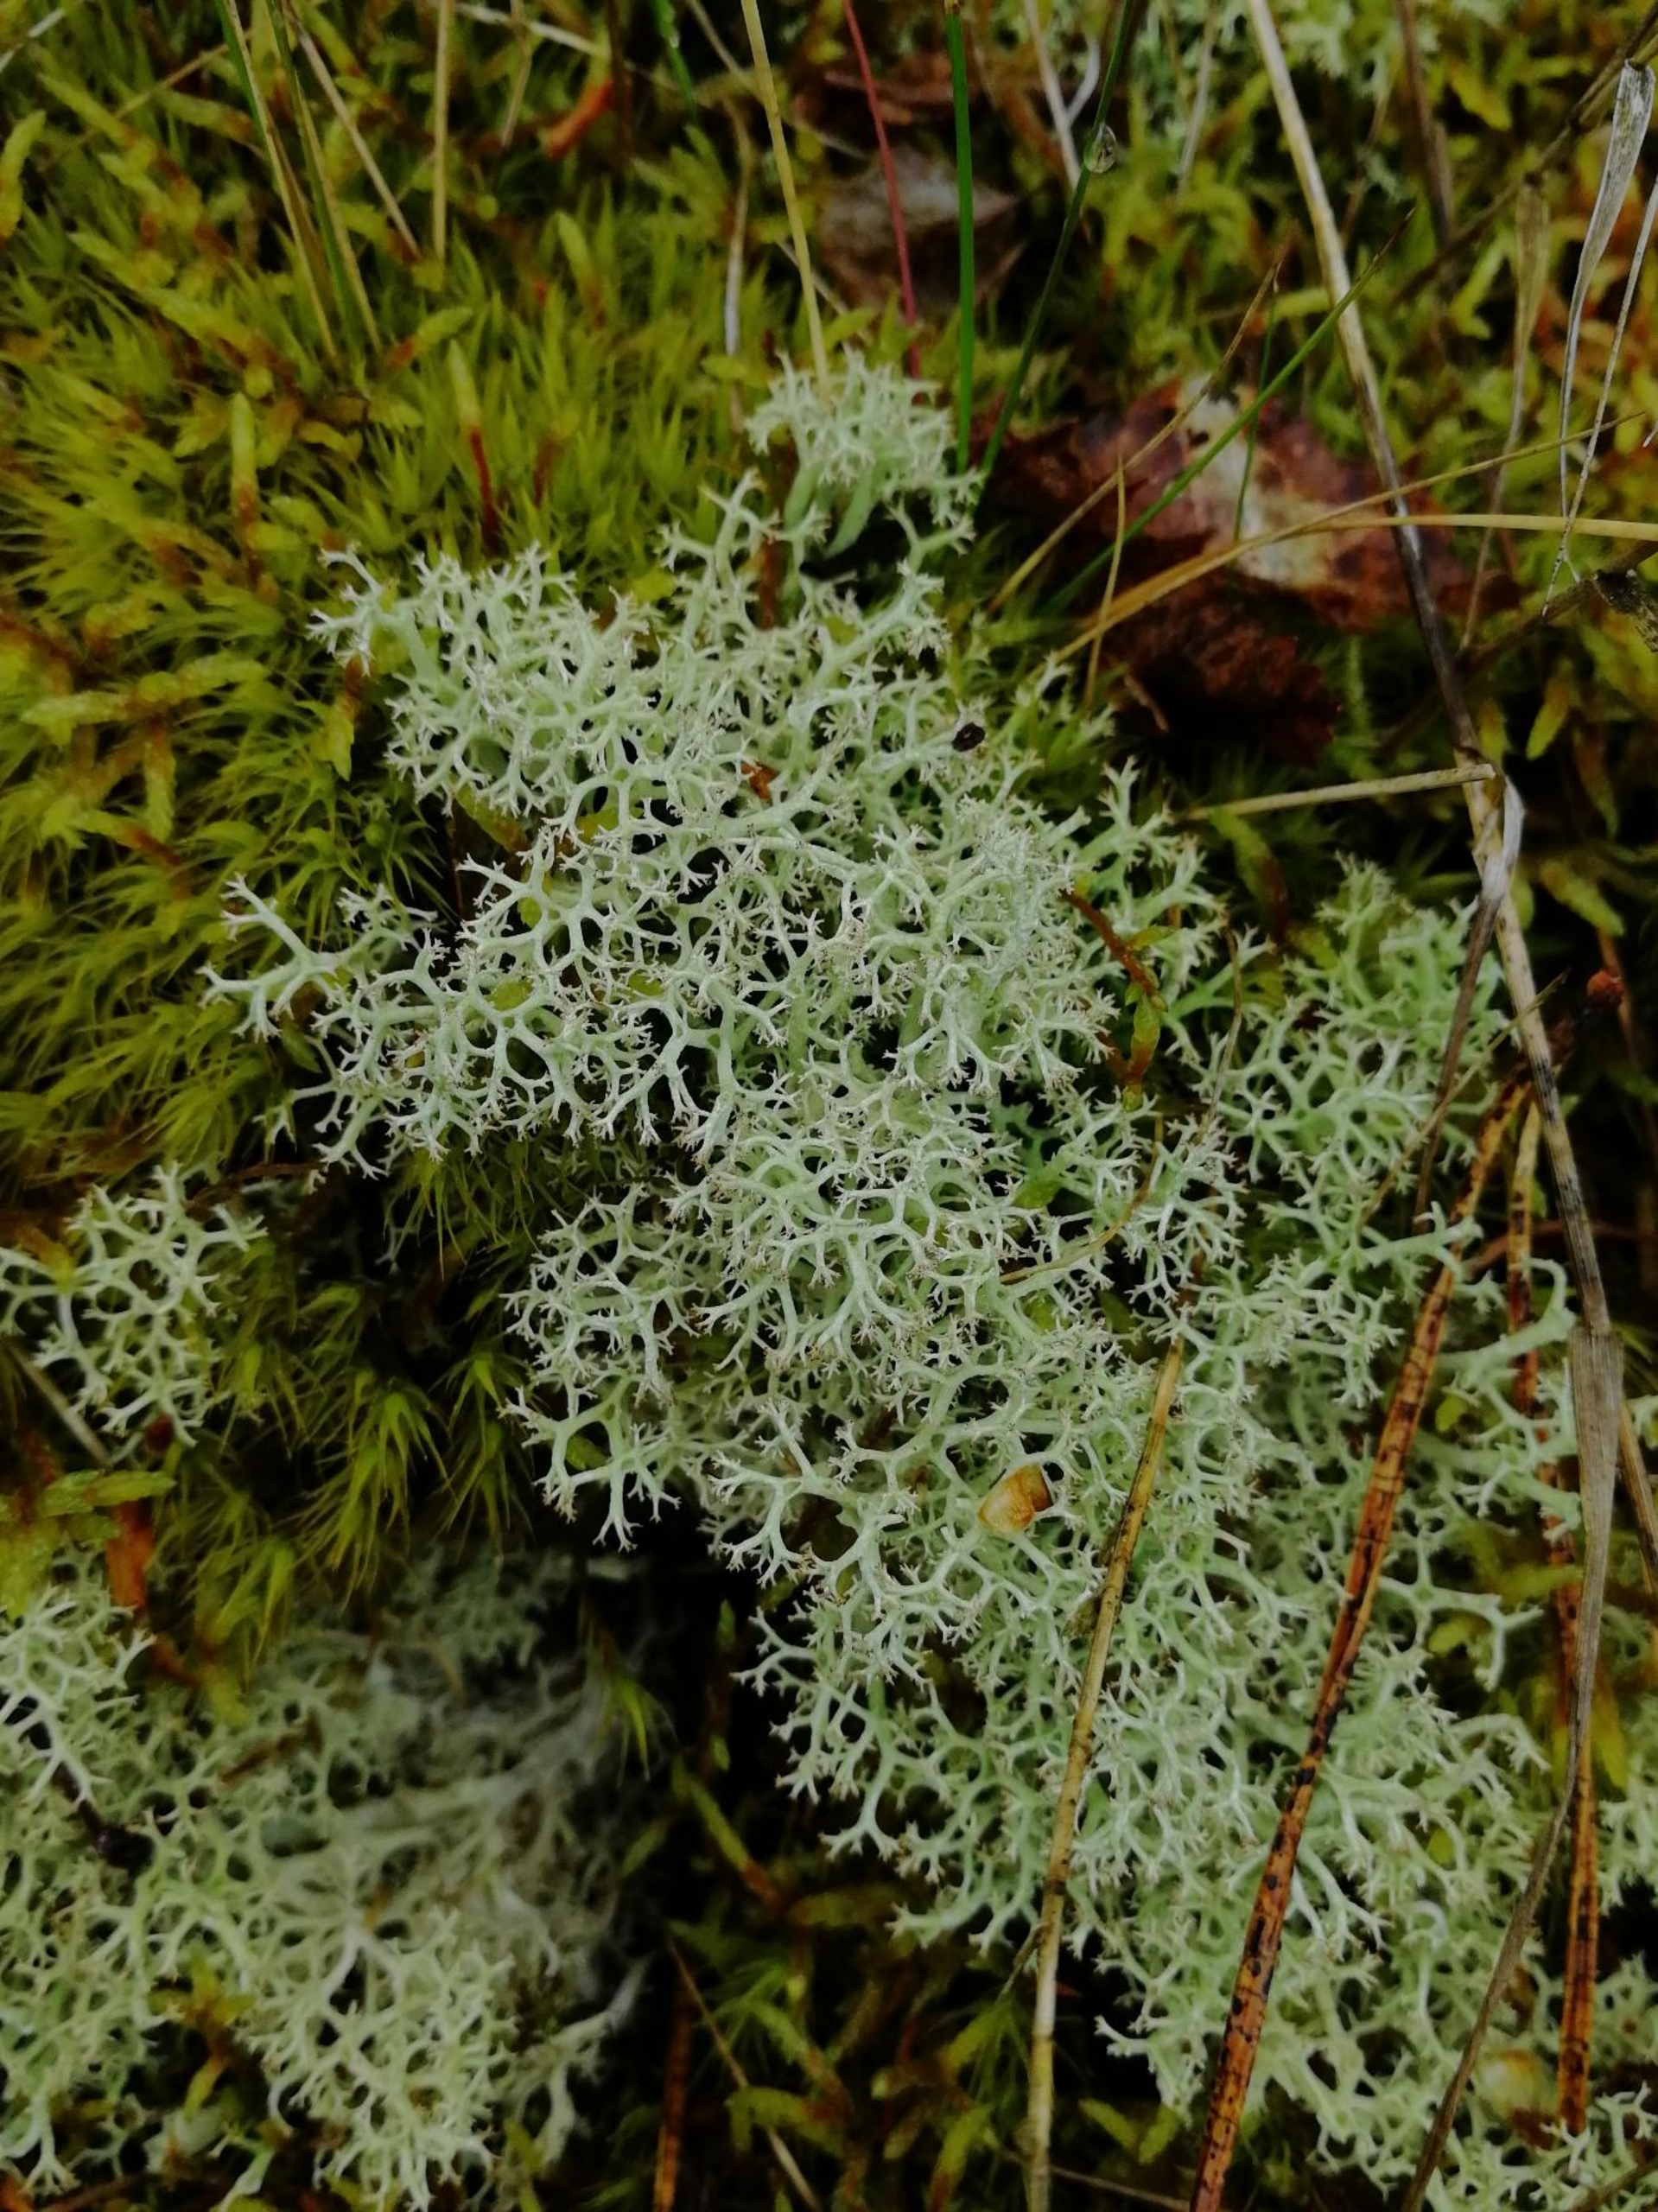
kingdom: Fungi
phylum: Ascomycota
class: Lecanoromycetes
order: Lecanorales
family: Cladoniaceae
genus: Cladonia
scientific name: Cladonia portentosa
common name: Hede-rensdyrlav
